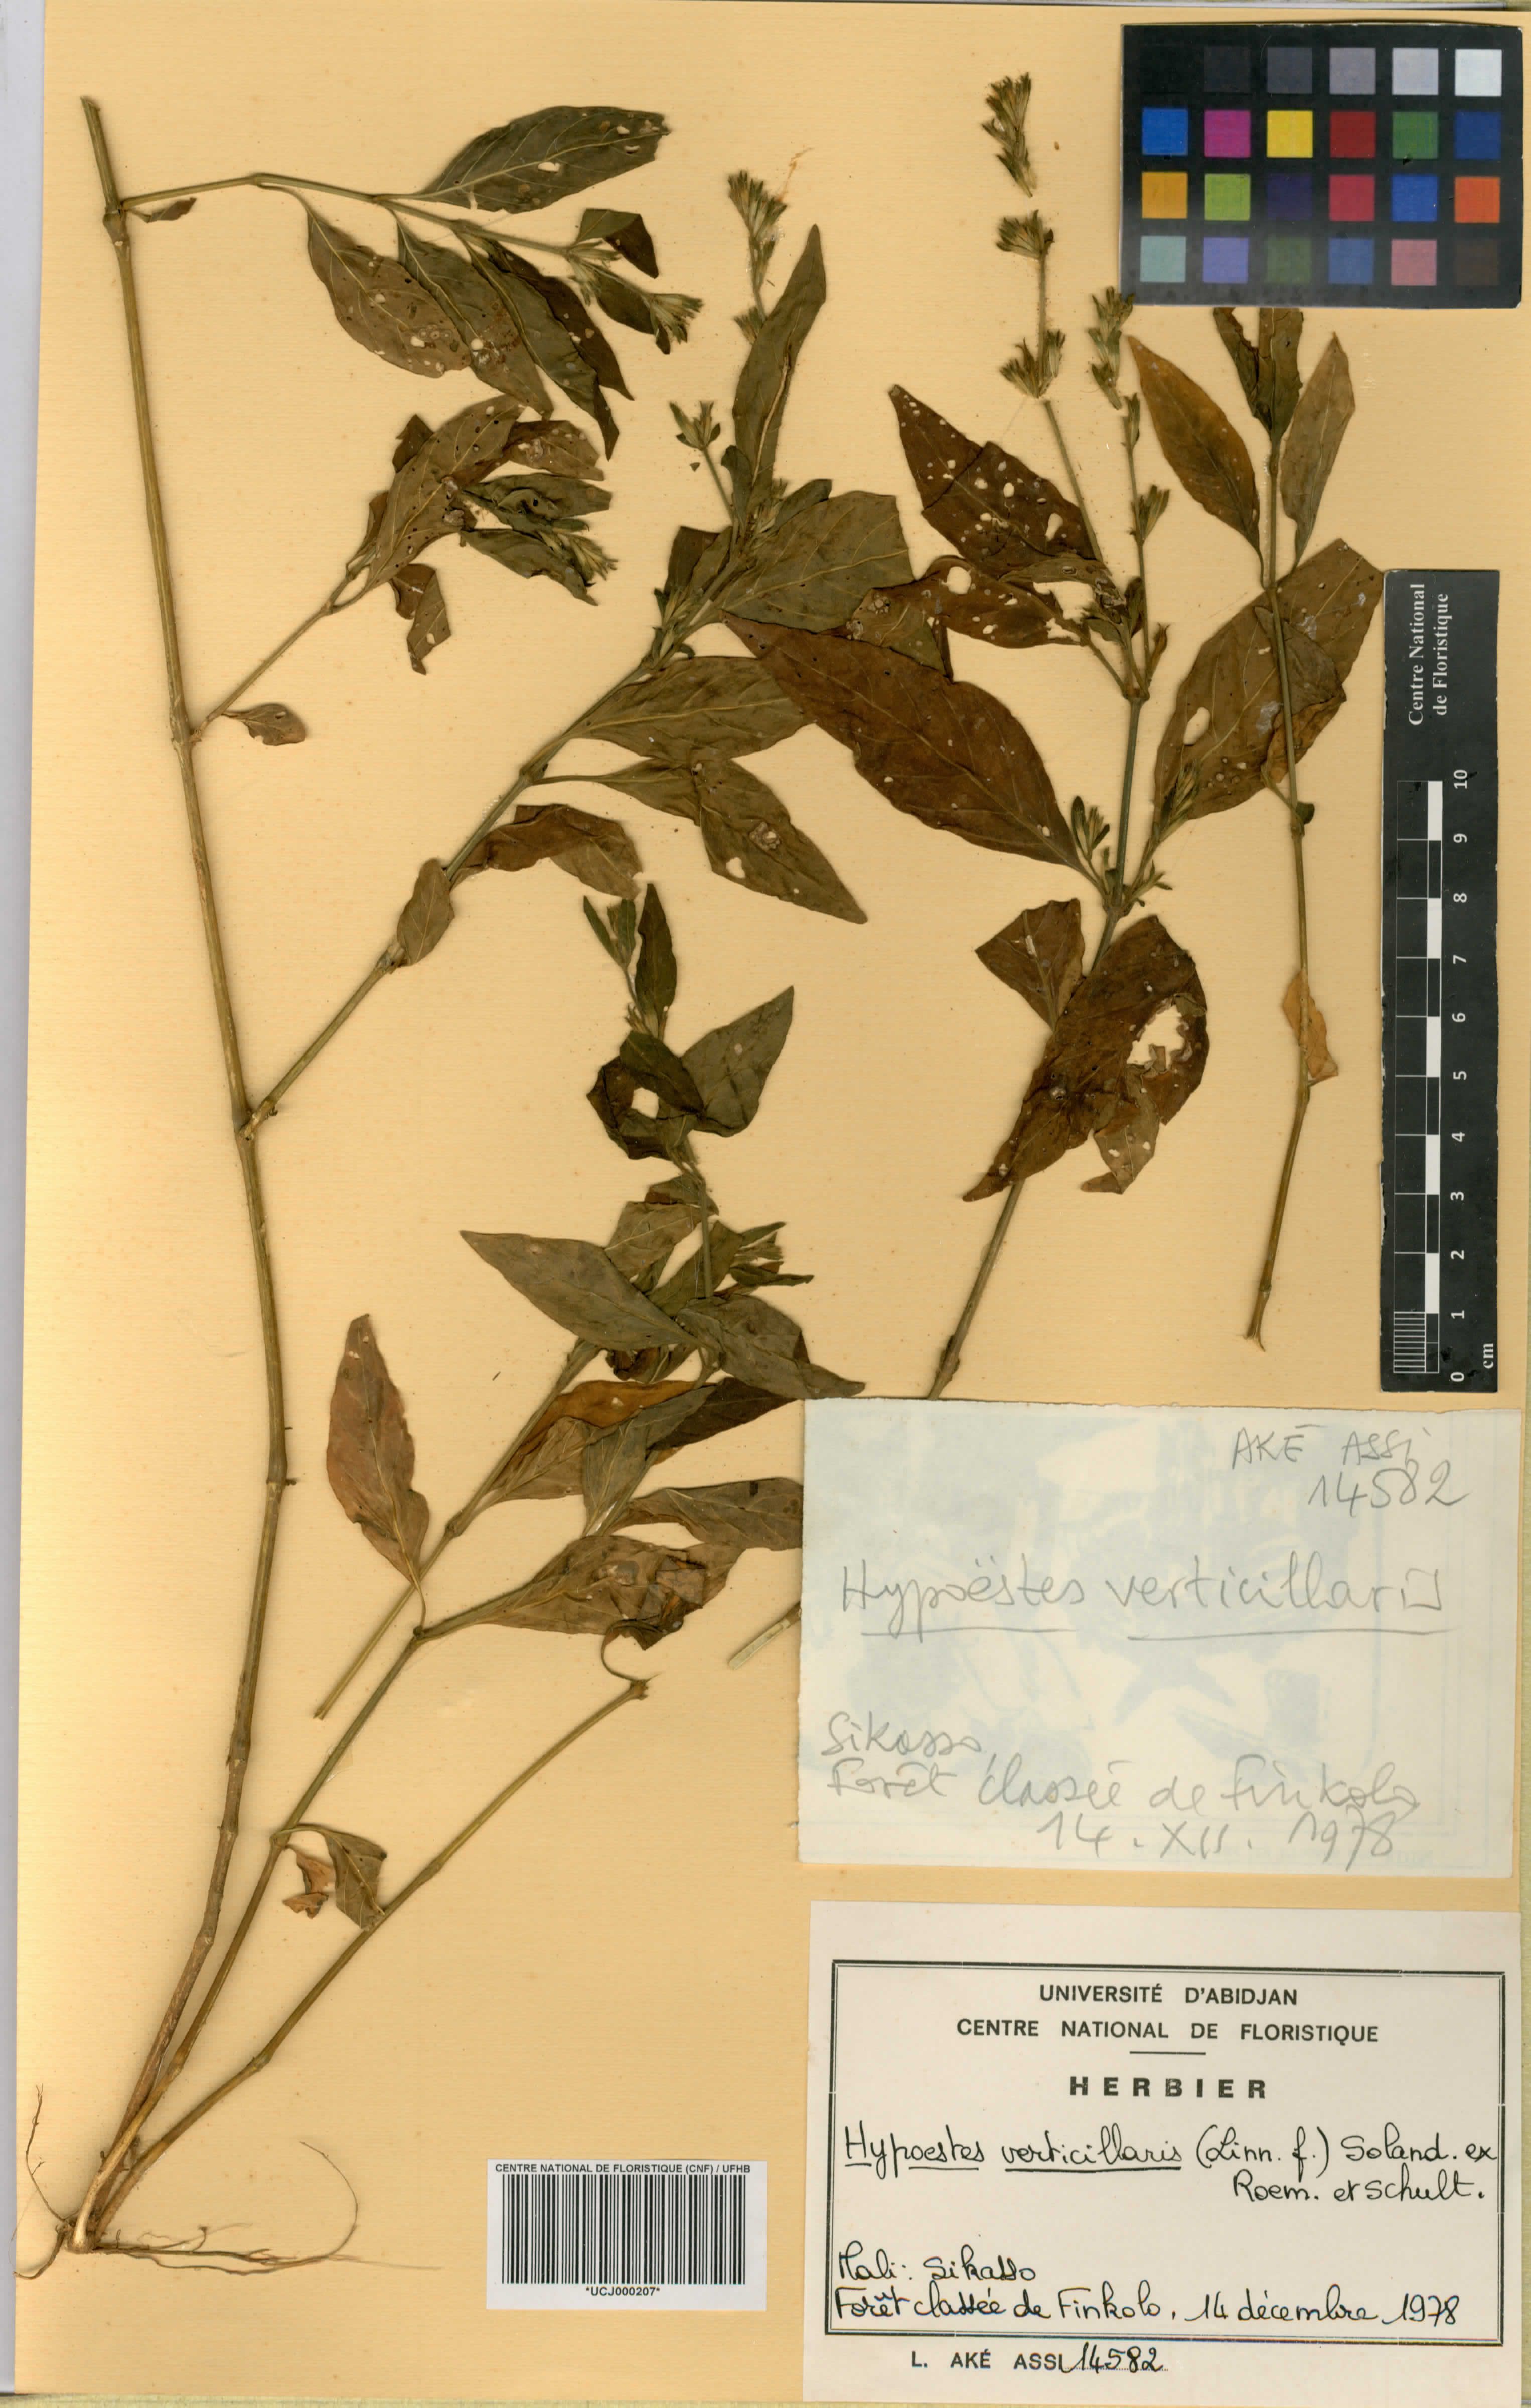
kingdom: Plantae
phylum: Tracheophyta
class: Magnoliopsida
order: Lamiales
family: Acanthaceae
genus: Hypoestes
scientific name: Hypoestes aristata
